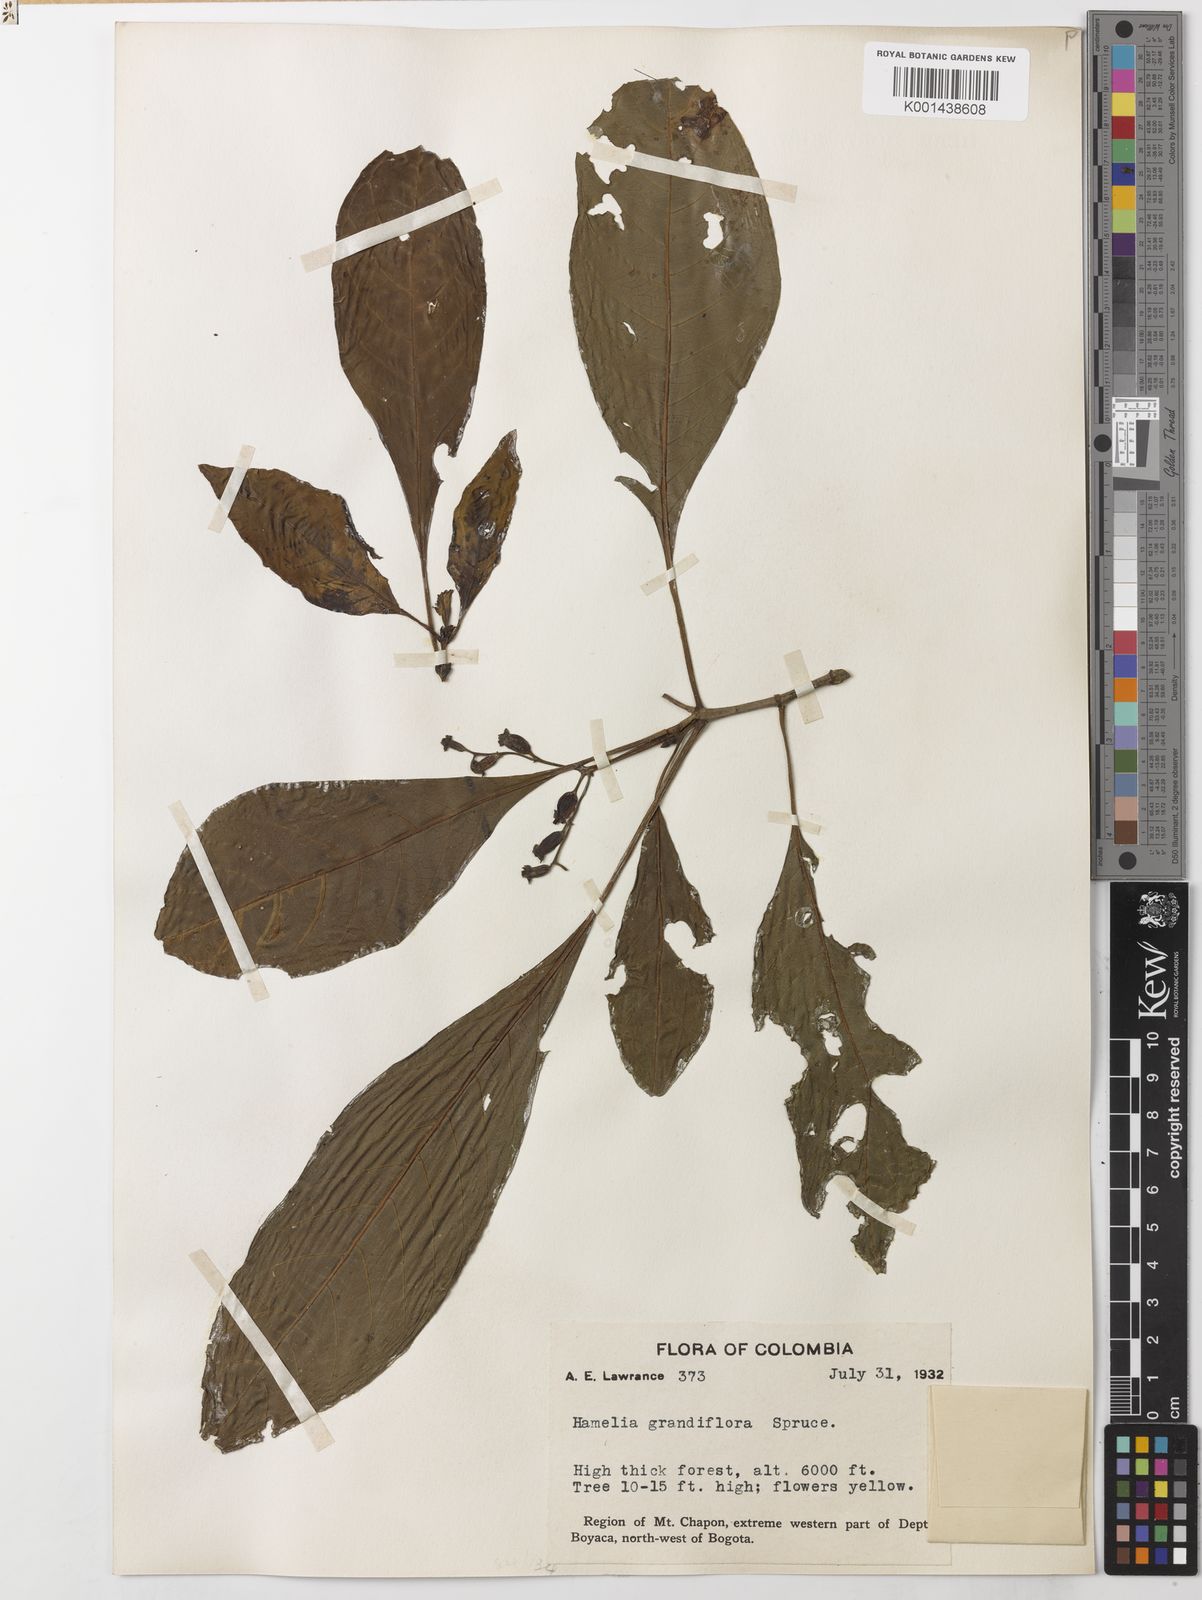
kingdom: Plantae
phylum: Tracheophyta
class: Magnoliopsida
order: Gentianales
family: Rubiaceae
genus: Hamelia
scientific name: Hamelia macrantha
